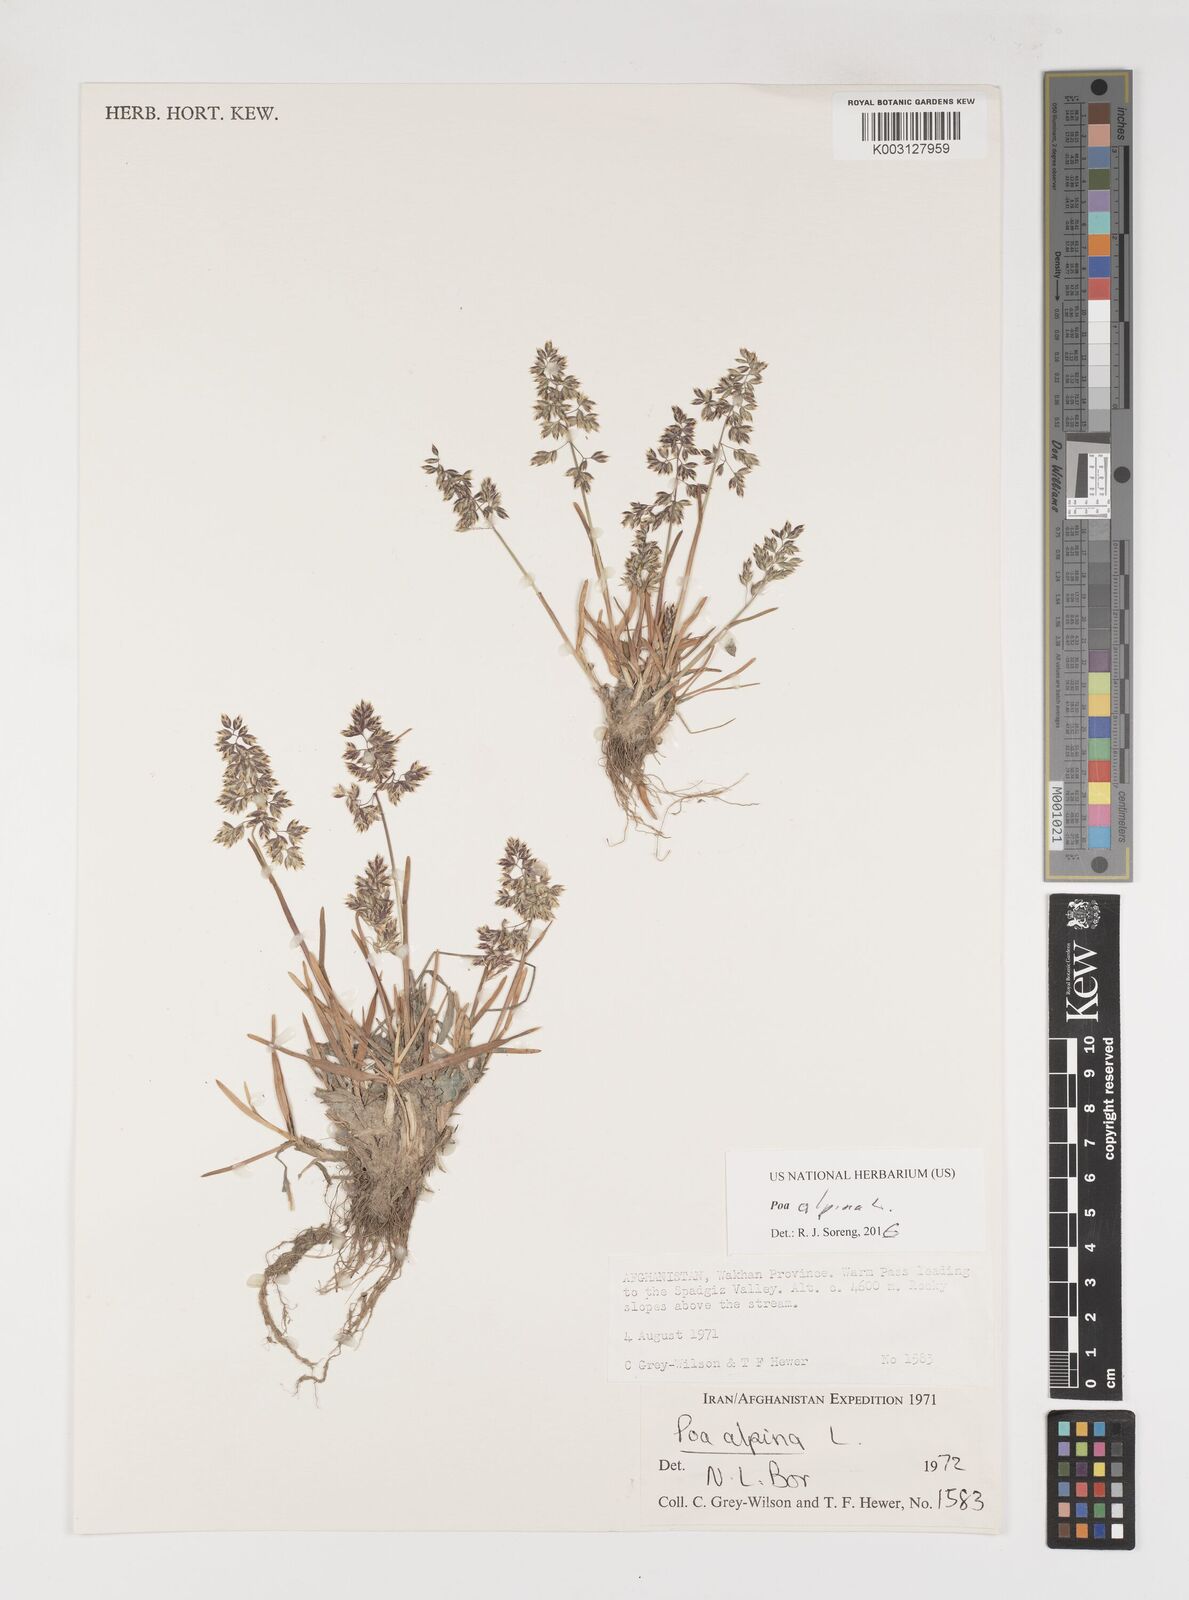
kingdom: Plantae
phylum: Tracheophyta
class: Liliopsida
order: Poales
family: Poaceae
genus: Poa
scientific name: Poa alpina
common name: Alpine bluegrass
